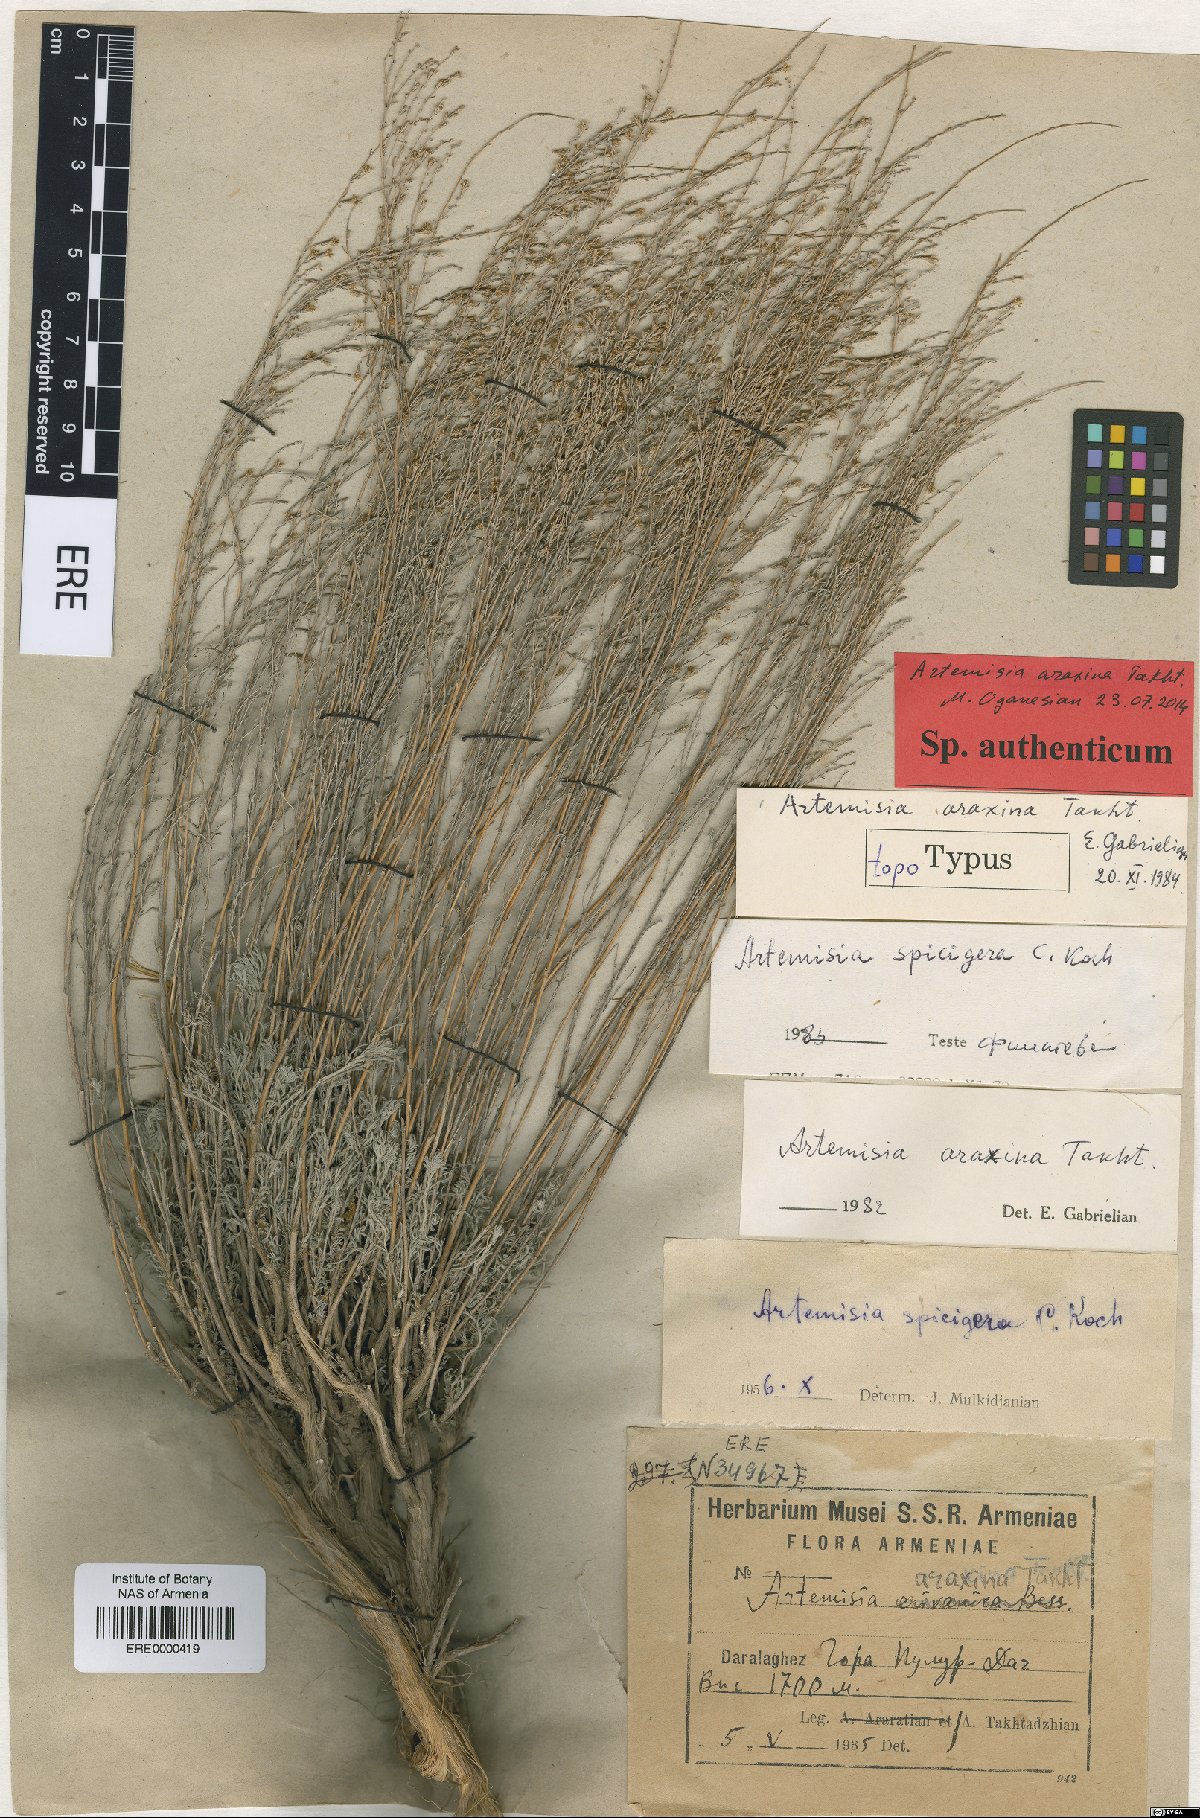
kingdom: Plantae
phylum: Tracheophyta
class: Magnoliopsida
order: Asterales
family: Asteraceae
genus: Artemisia
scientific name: Artemisia araxina
